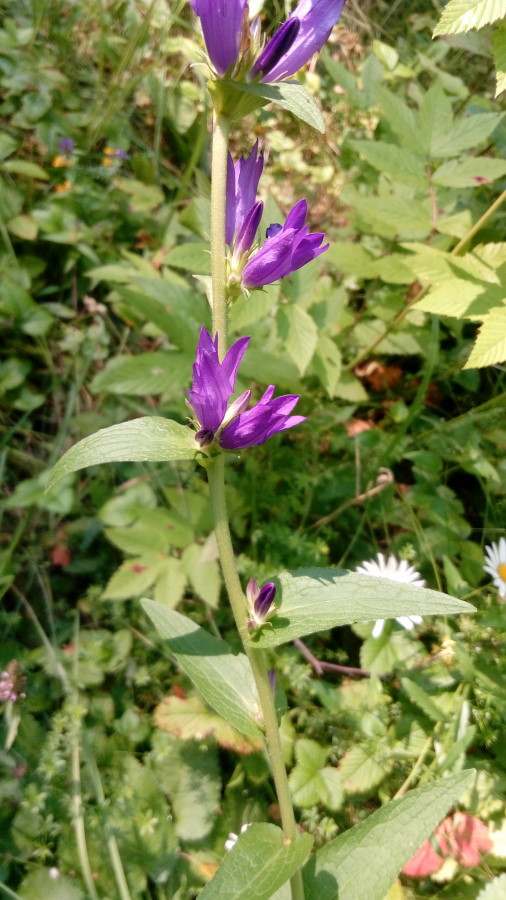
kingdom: Plantae
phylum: Tracheophyta
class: Magnoliopsida
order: Asterales
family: Campanulaceae
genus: Campanula
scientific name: Campanula glomerata
